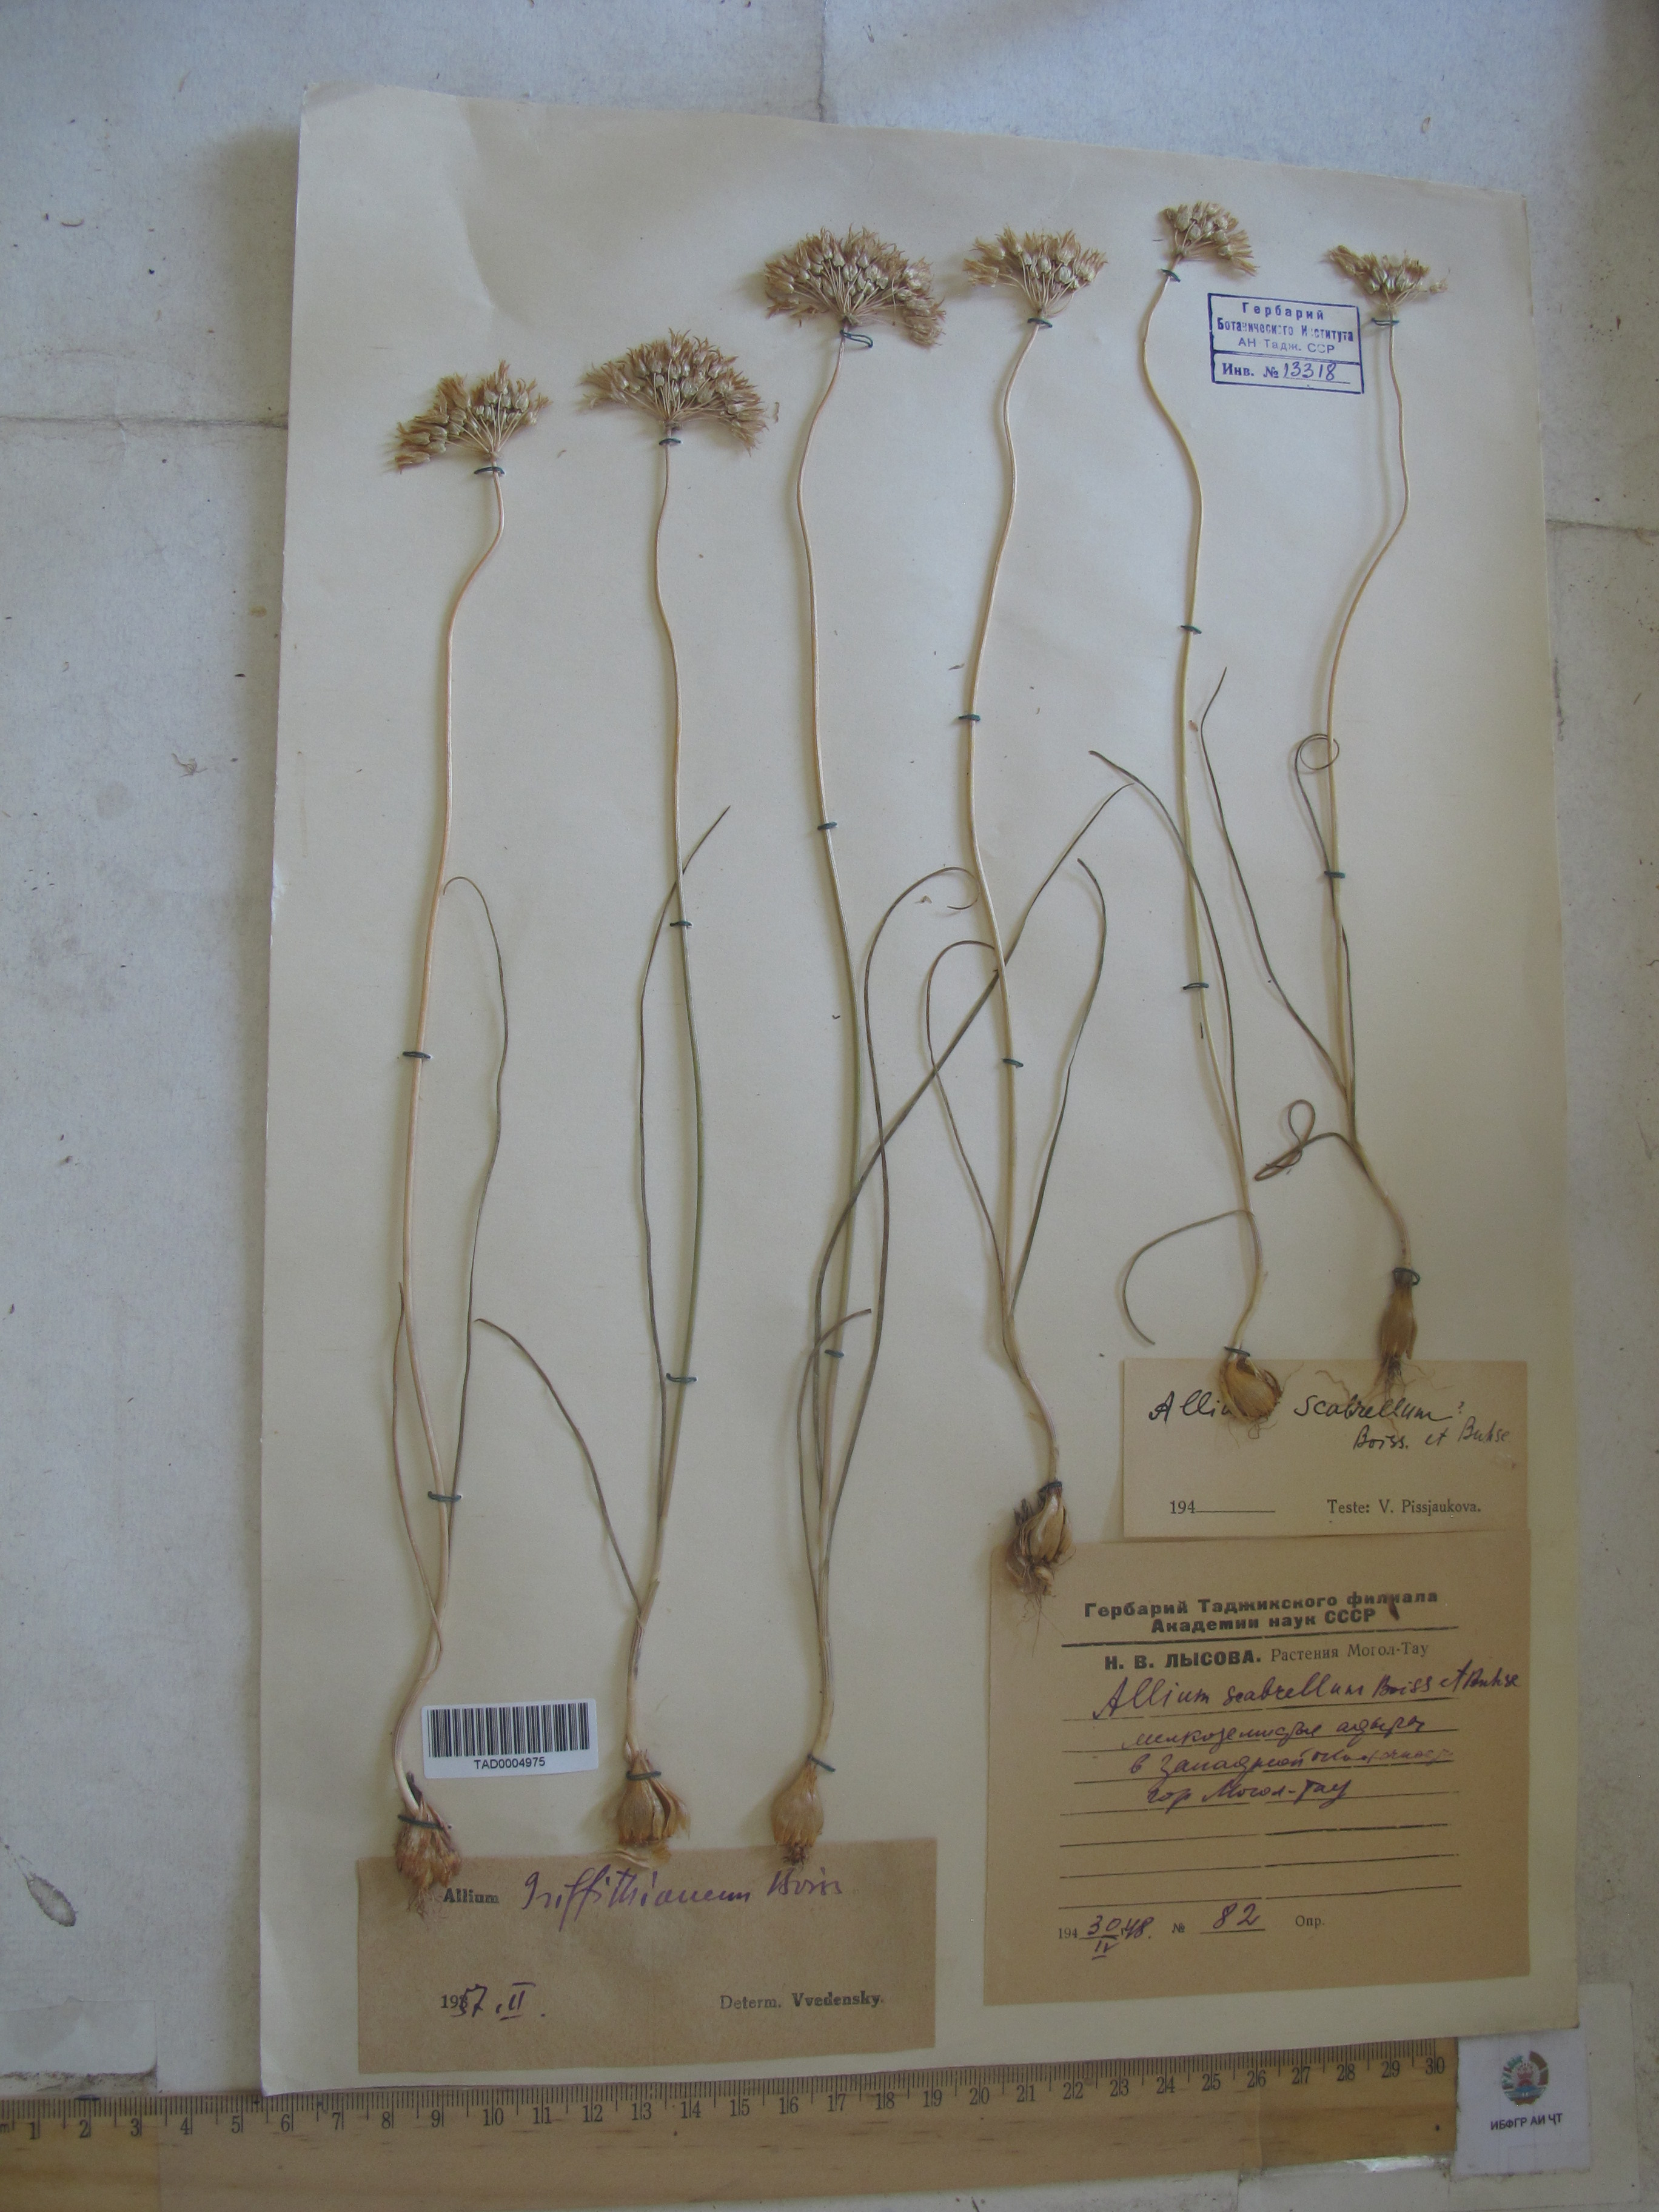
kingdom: Plantae
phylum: Tracheophyta
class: Liliopsida
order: Asparagales
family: Amaryllidaceae
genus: Allium
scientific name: Allium griffithianum
